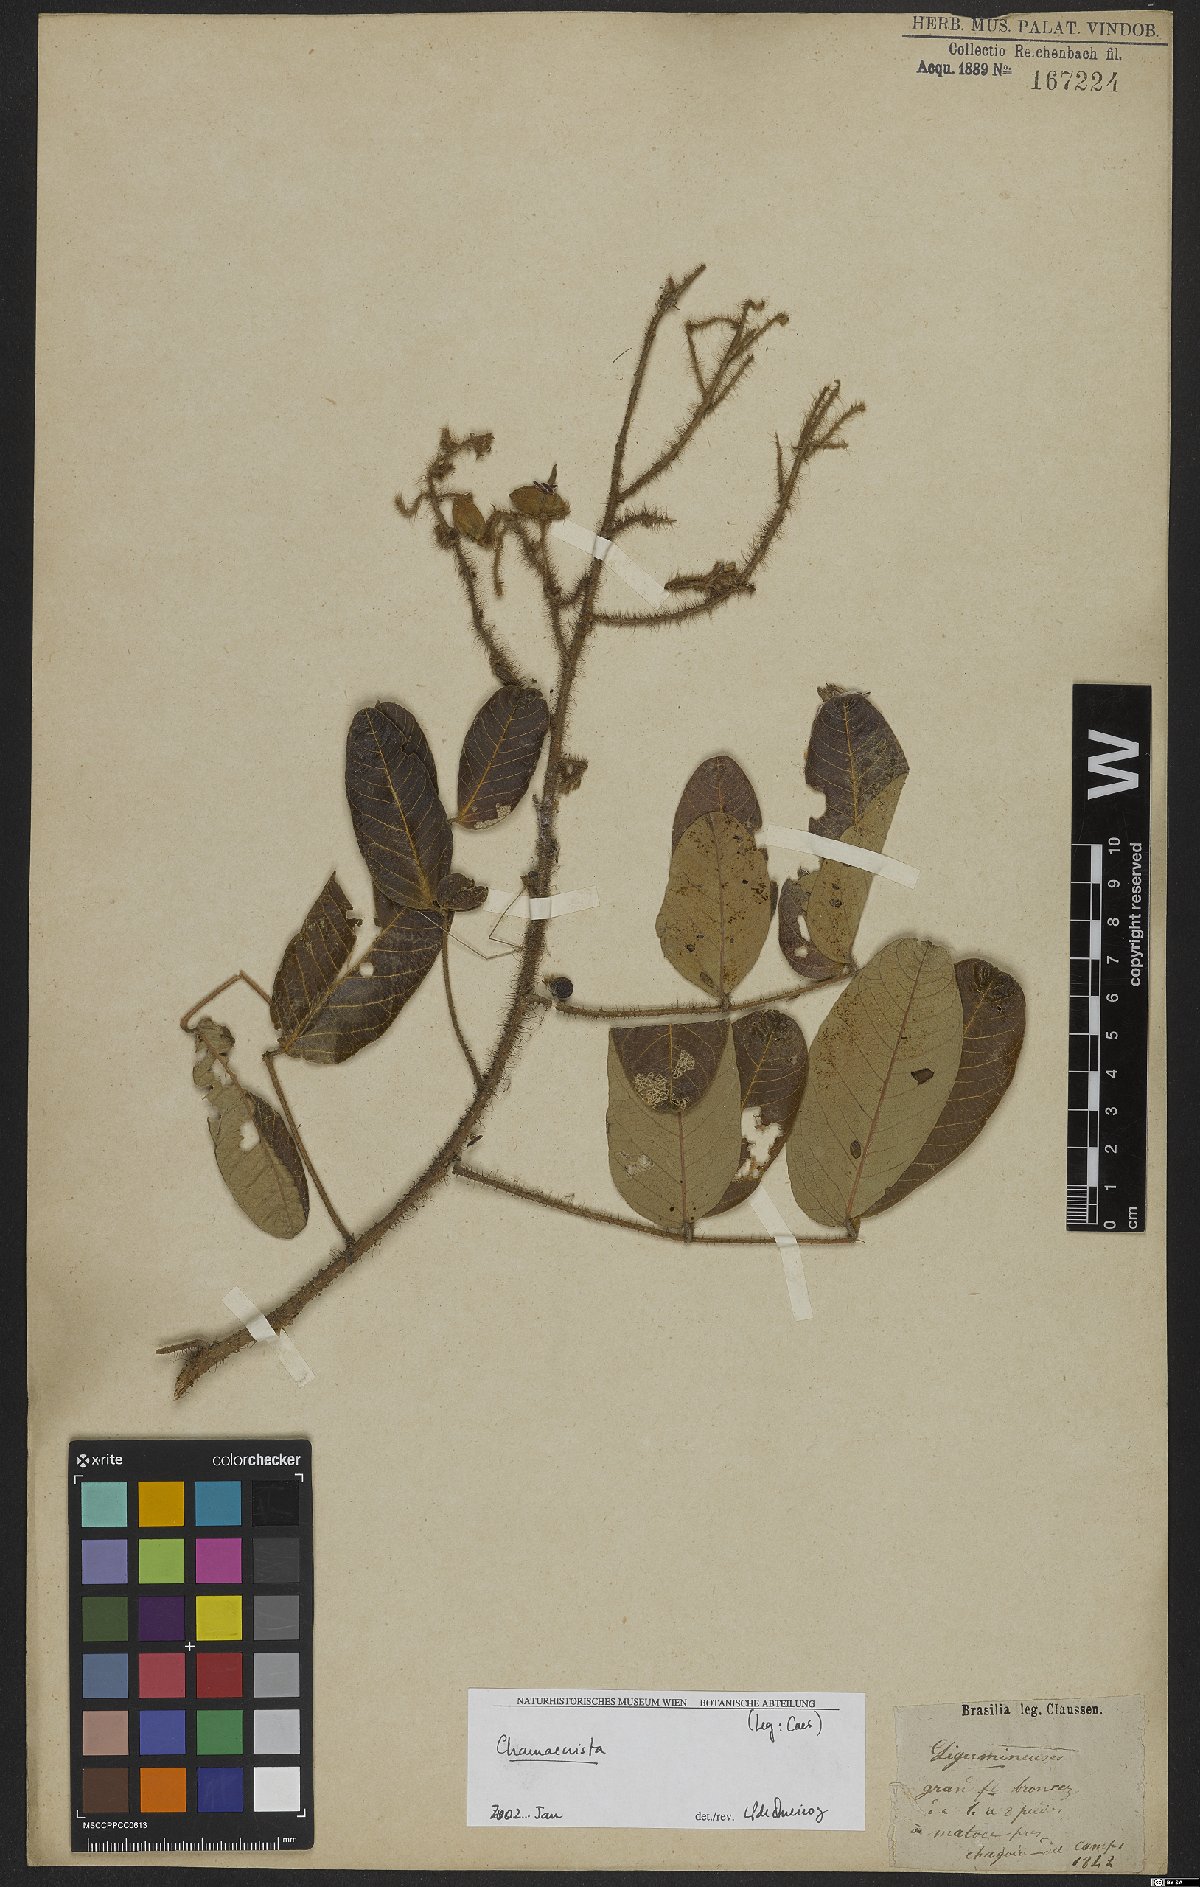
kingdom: Plantae
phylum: Tracheophyta
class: Magnoliopsida
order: Fabales
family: Fabaceae
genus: Chamaecrista
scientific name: Chamaecrista
